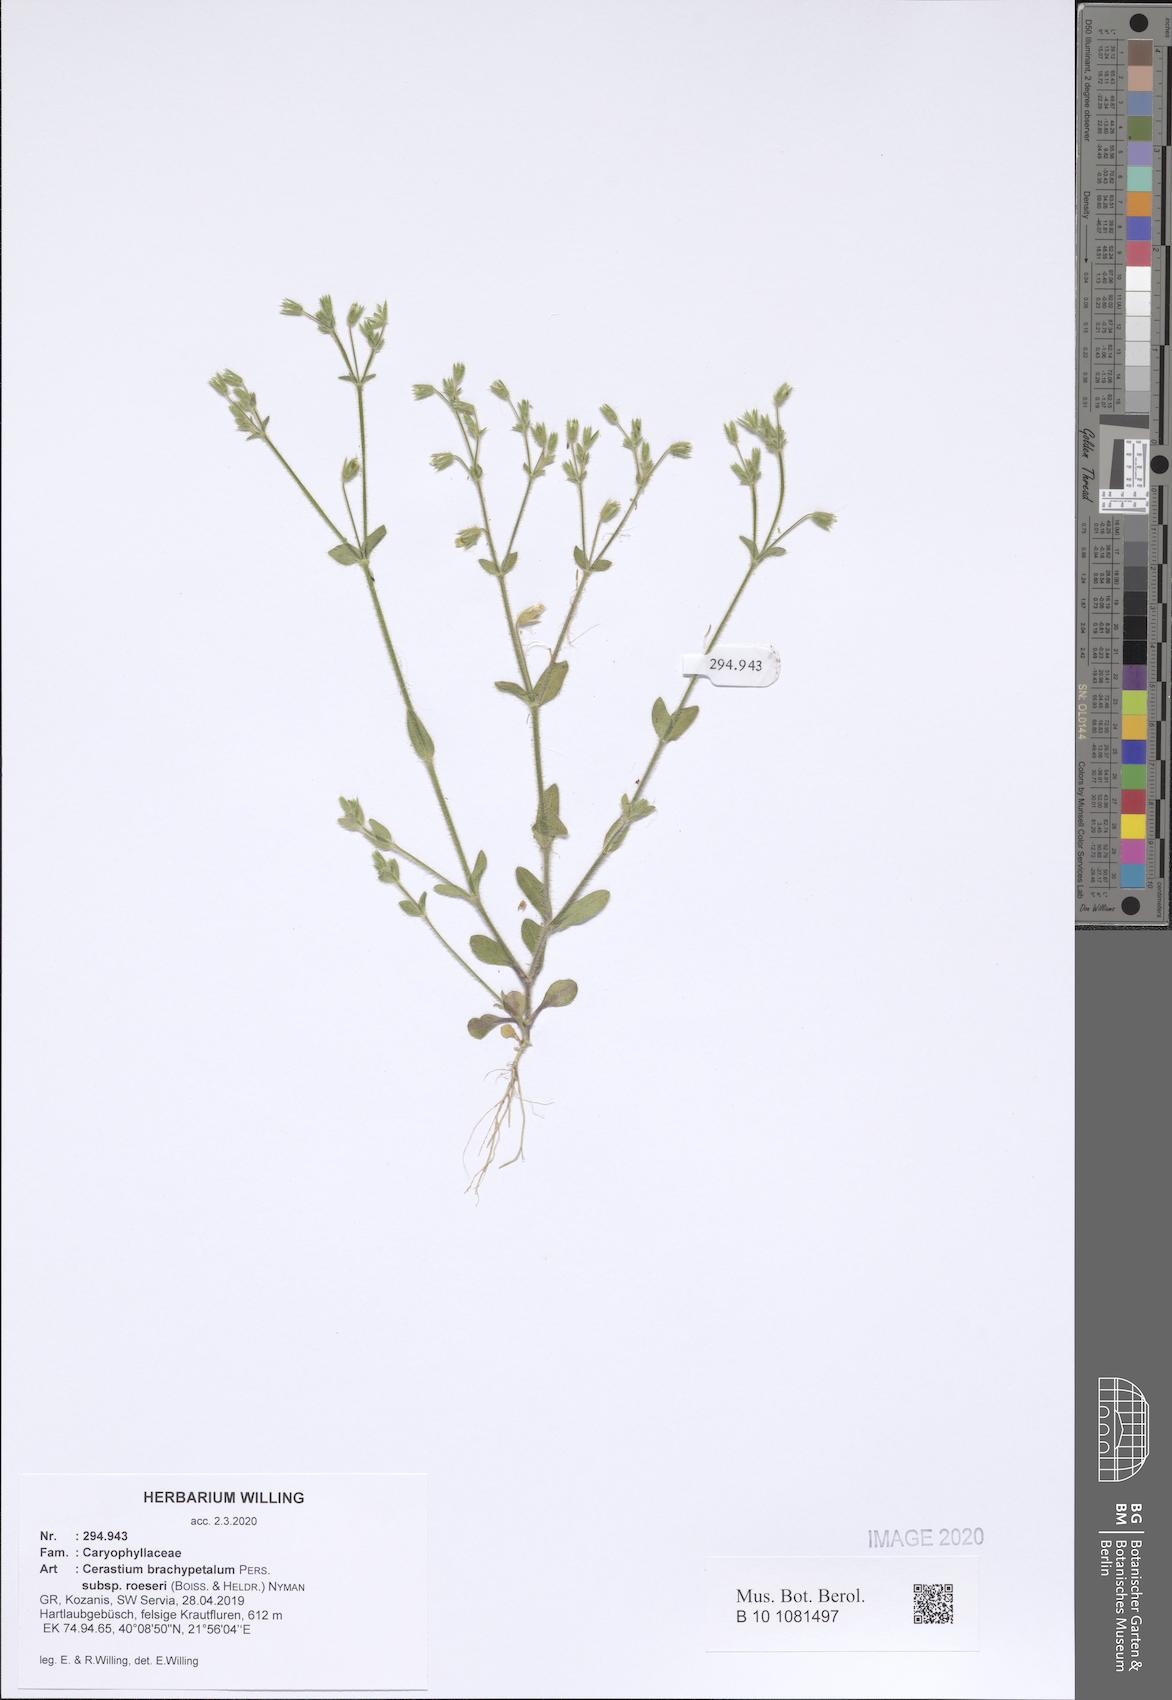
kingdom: Plantae
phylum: Tracheophyta
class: Magnoliopsida
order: Caryophyllales
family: Caryophyllaceae
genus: Cerastium
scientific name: Cerastium brachypetalum
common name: Grey mouse-ear
